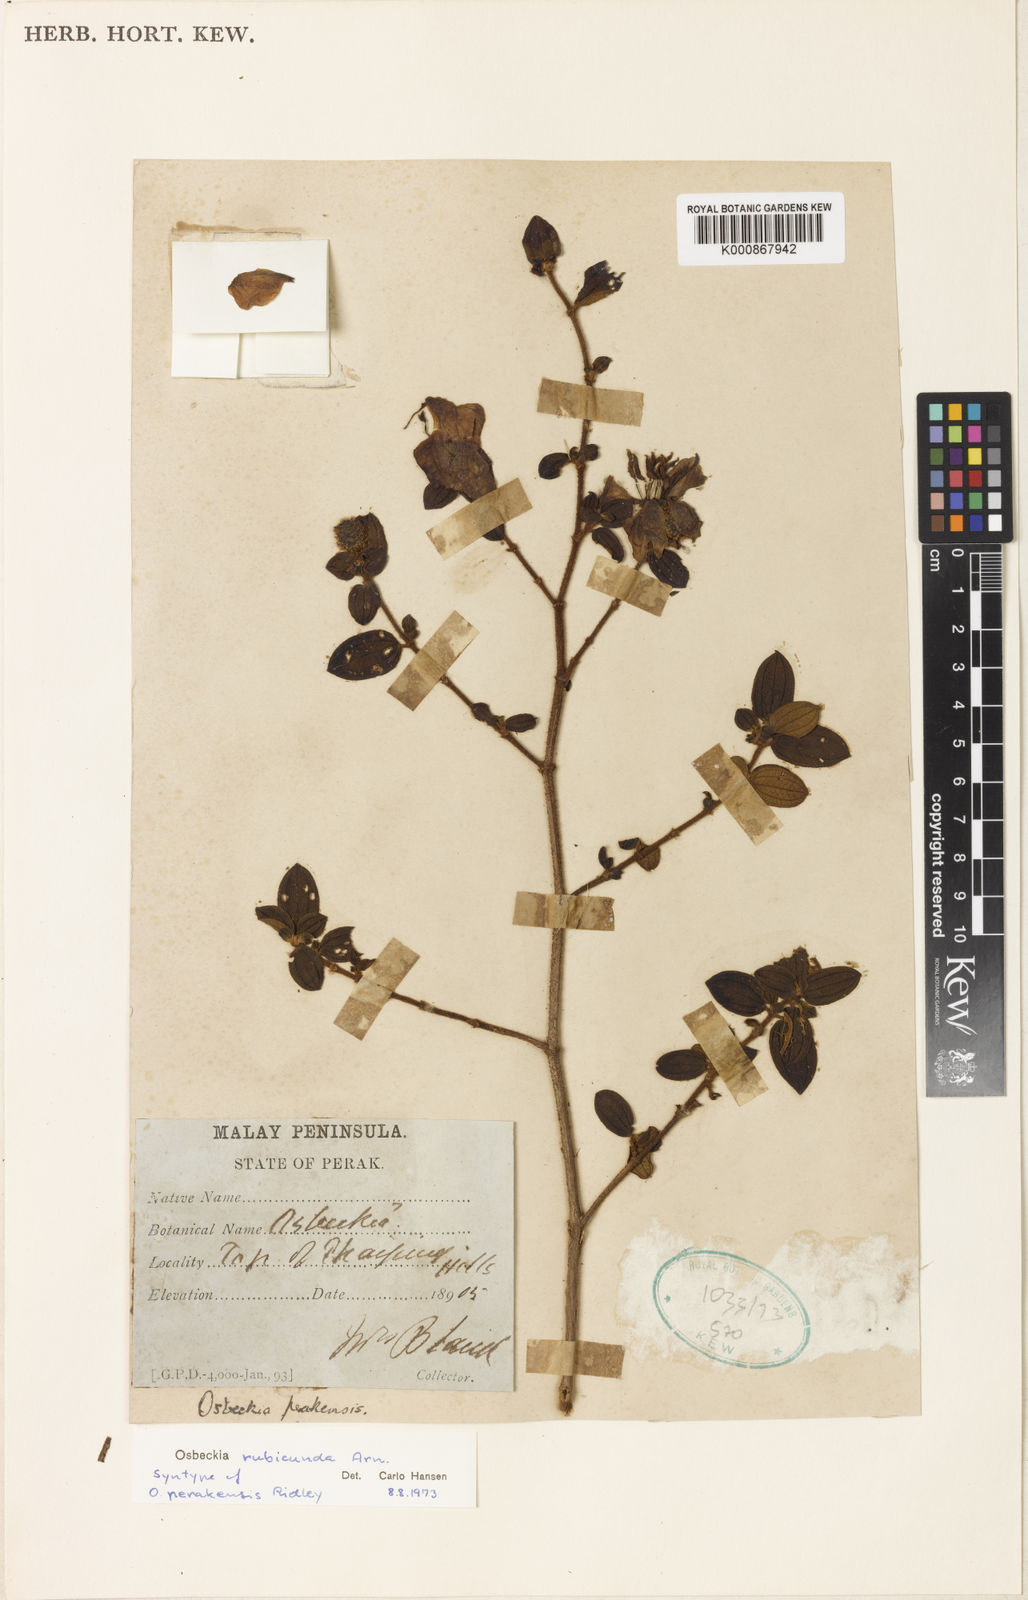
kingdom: Plantae
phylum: Tracheophyta
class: Magnoliopsida
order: Myrtales
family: Melastomataceae
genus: Osbeckia
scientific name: Osbeckia rubicunda
